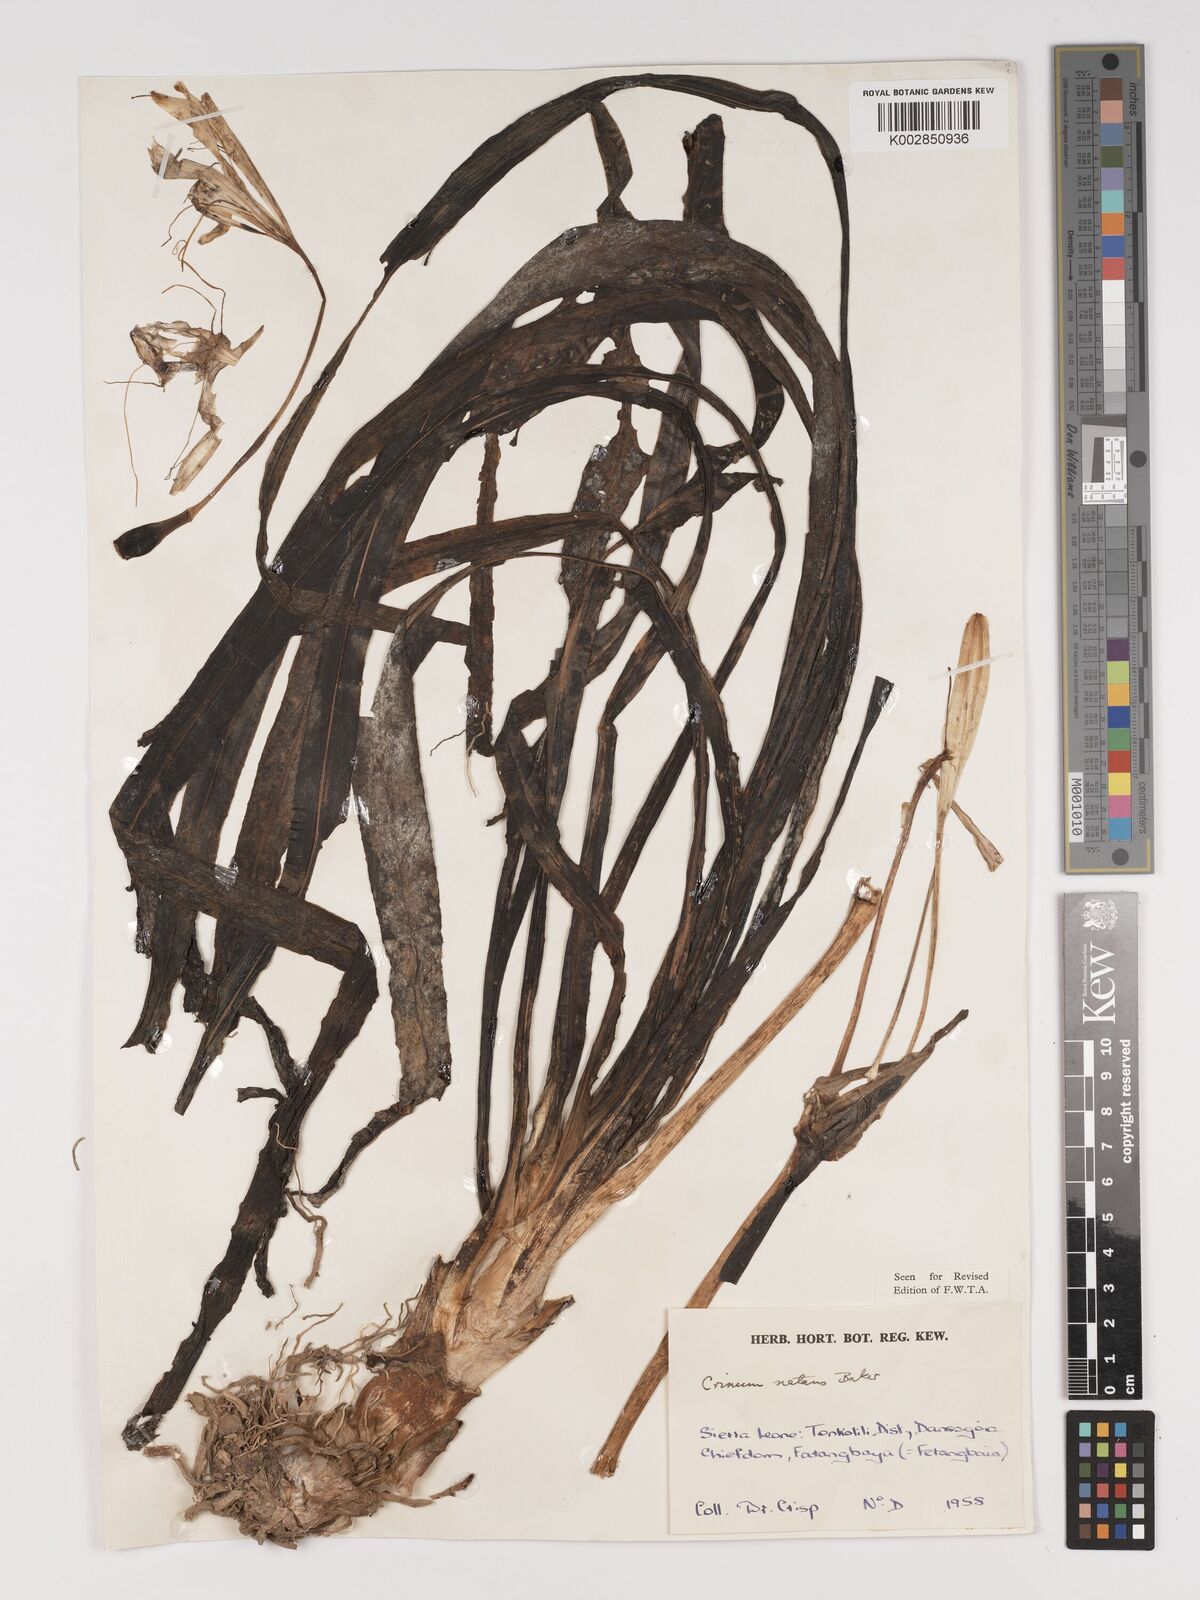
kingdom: Plantae
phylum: Tracheophyta
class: Liliopsida
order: Asparagales
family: Amaryllidaceae
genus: Crinum
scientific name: Crinum natans
